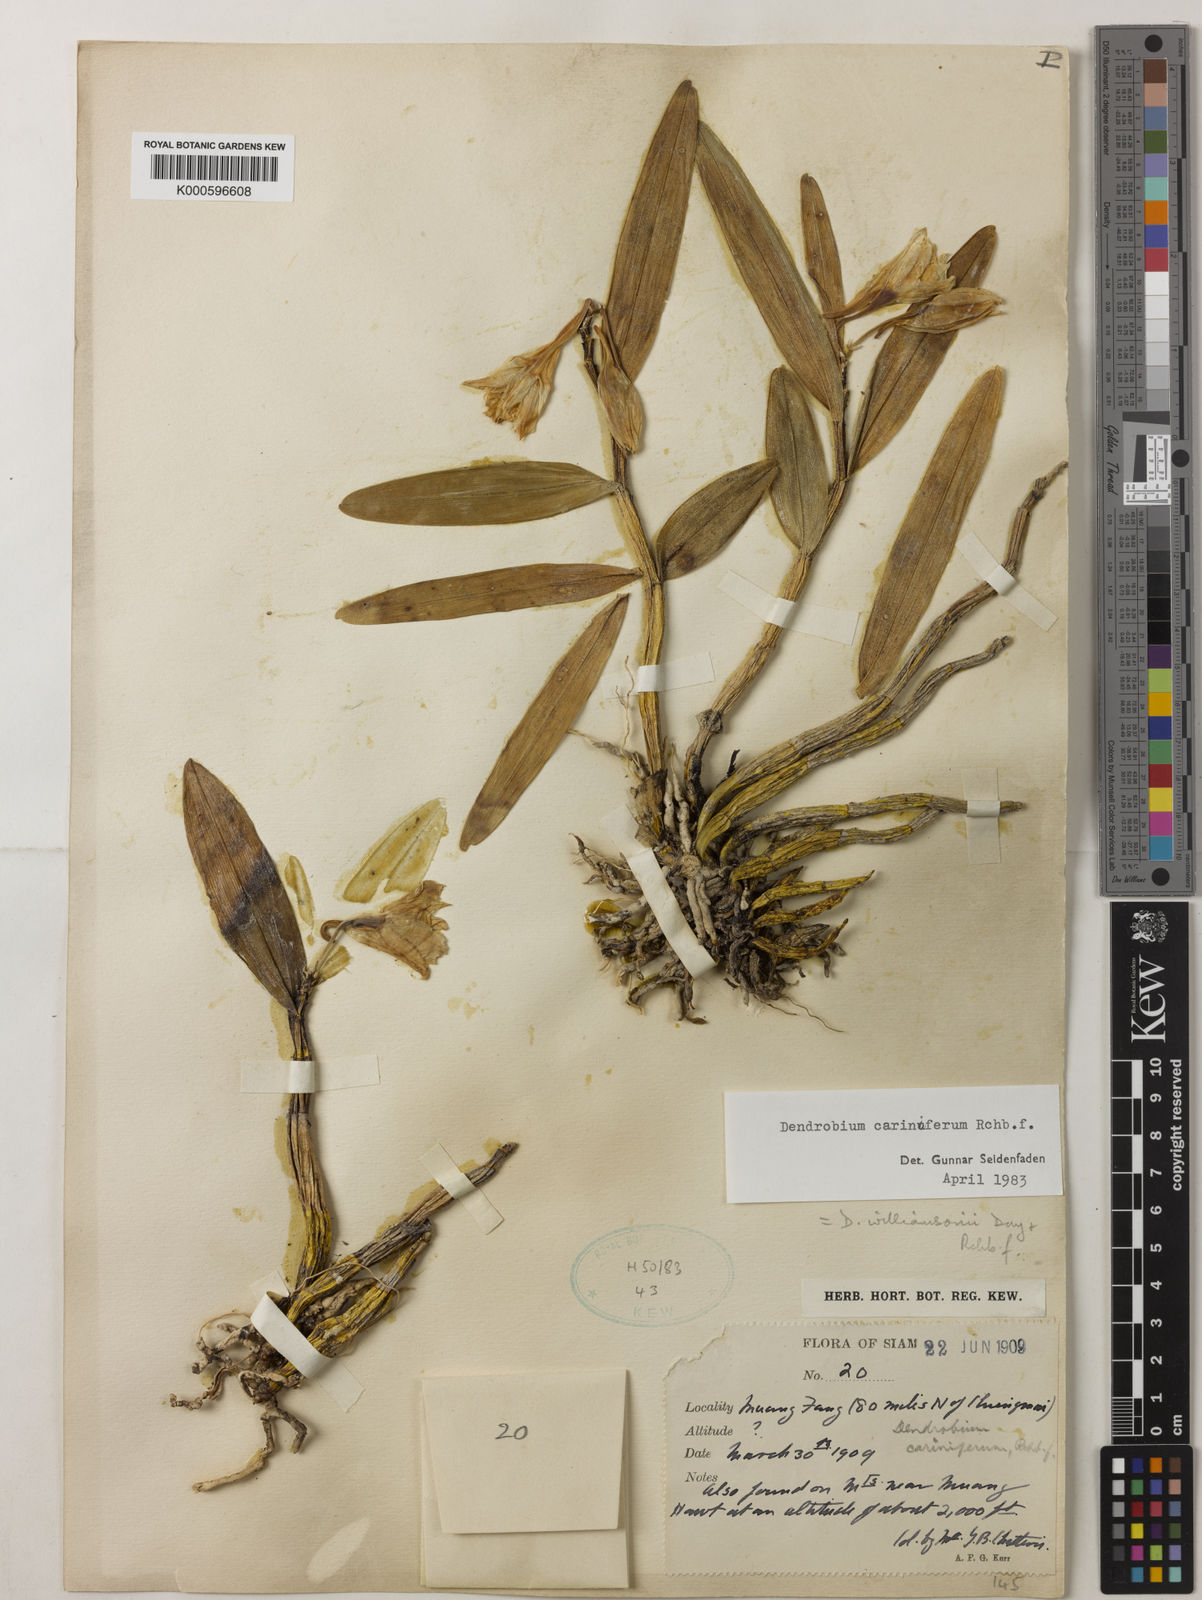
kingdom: Plantae
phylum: Tracheophyta
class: Liliopsida
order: Asparagales
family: Orchidaceae
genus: Dendrobium
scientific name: Dendrobium cariniferum
